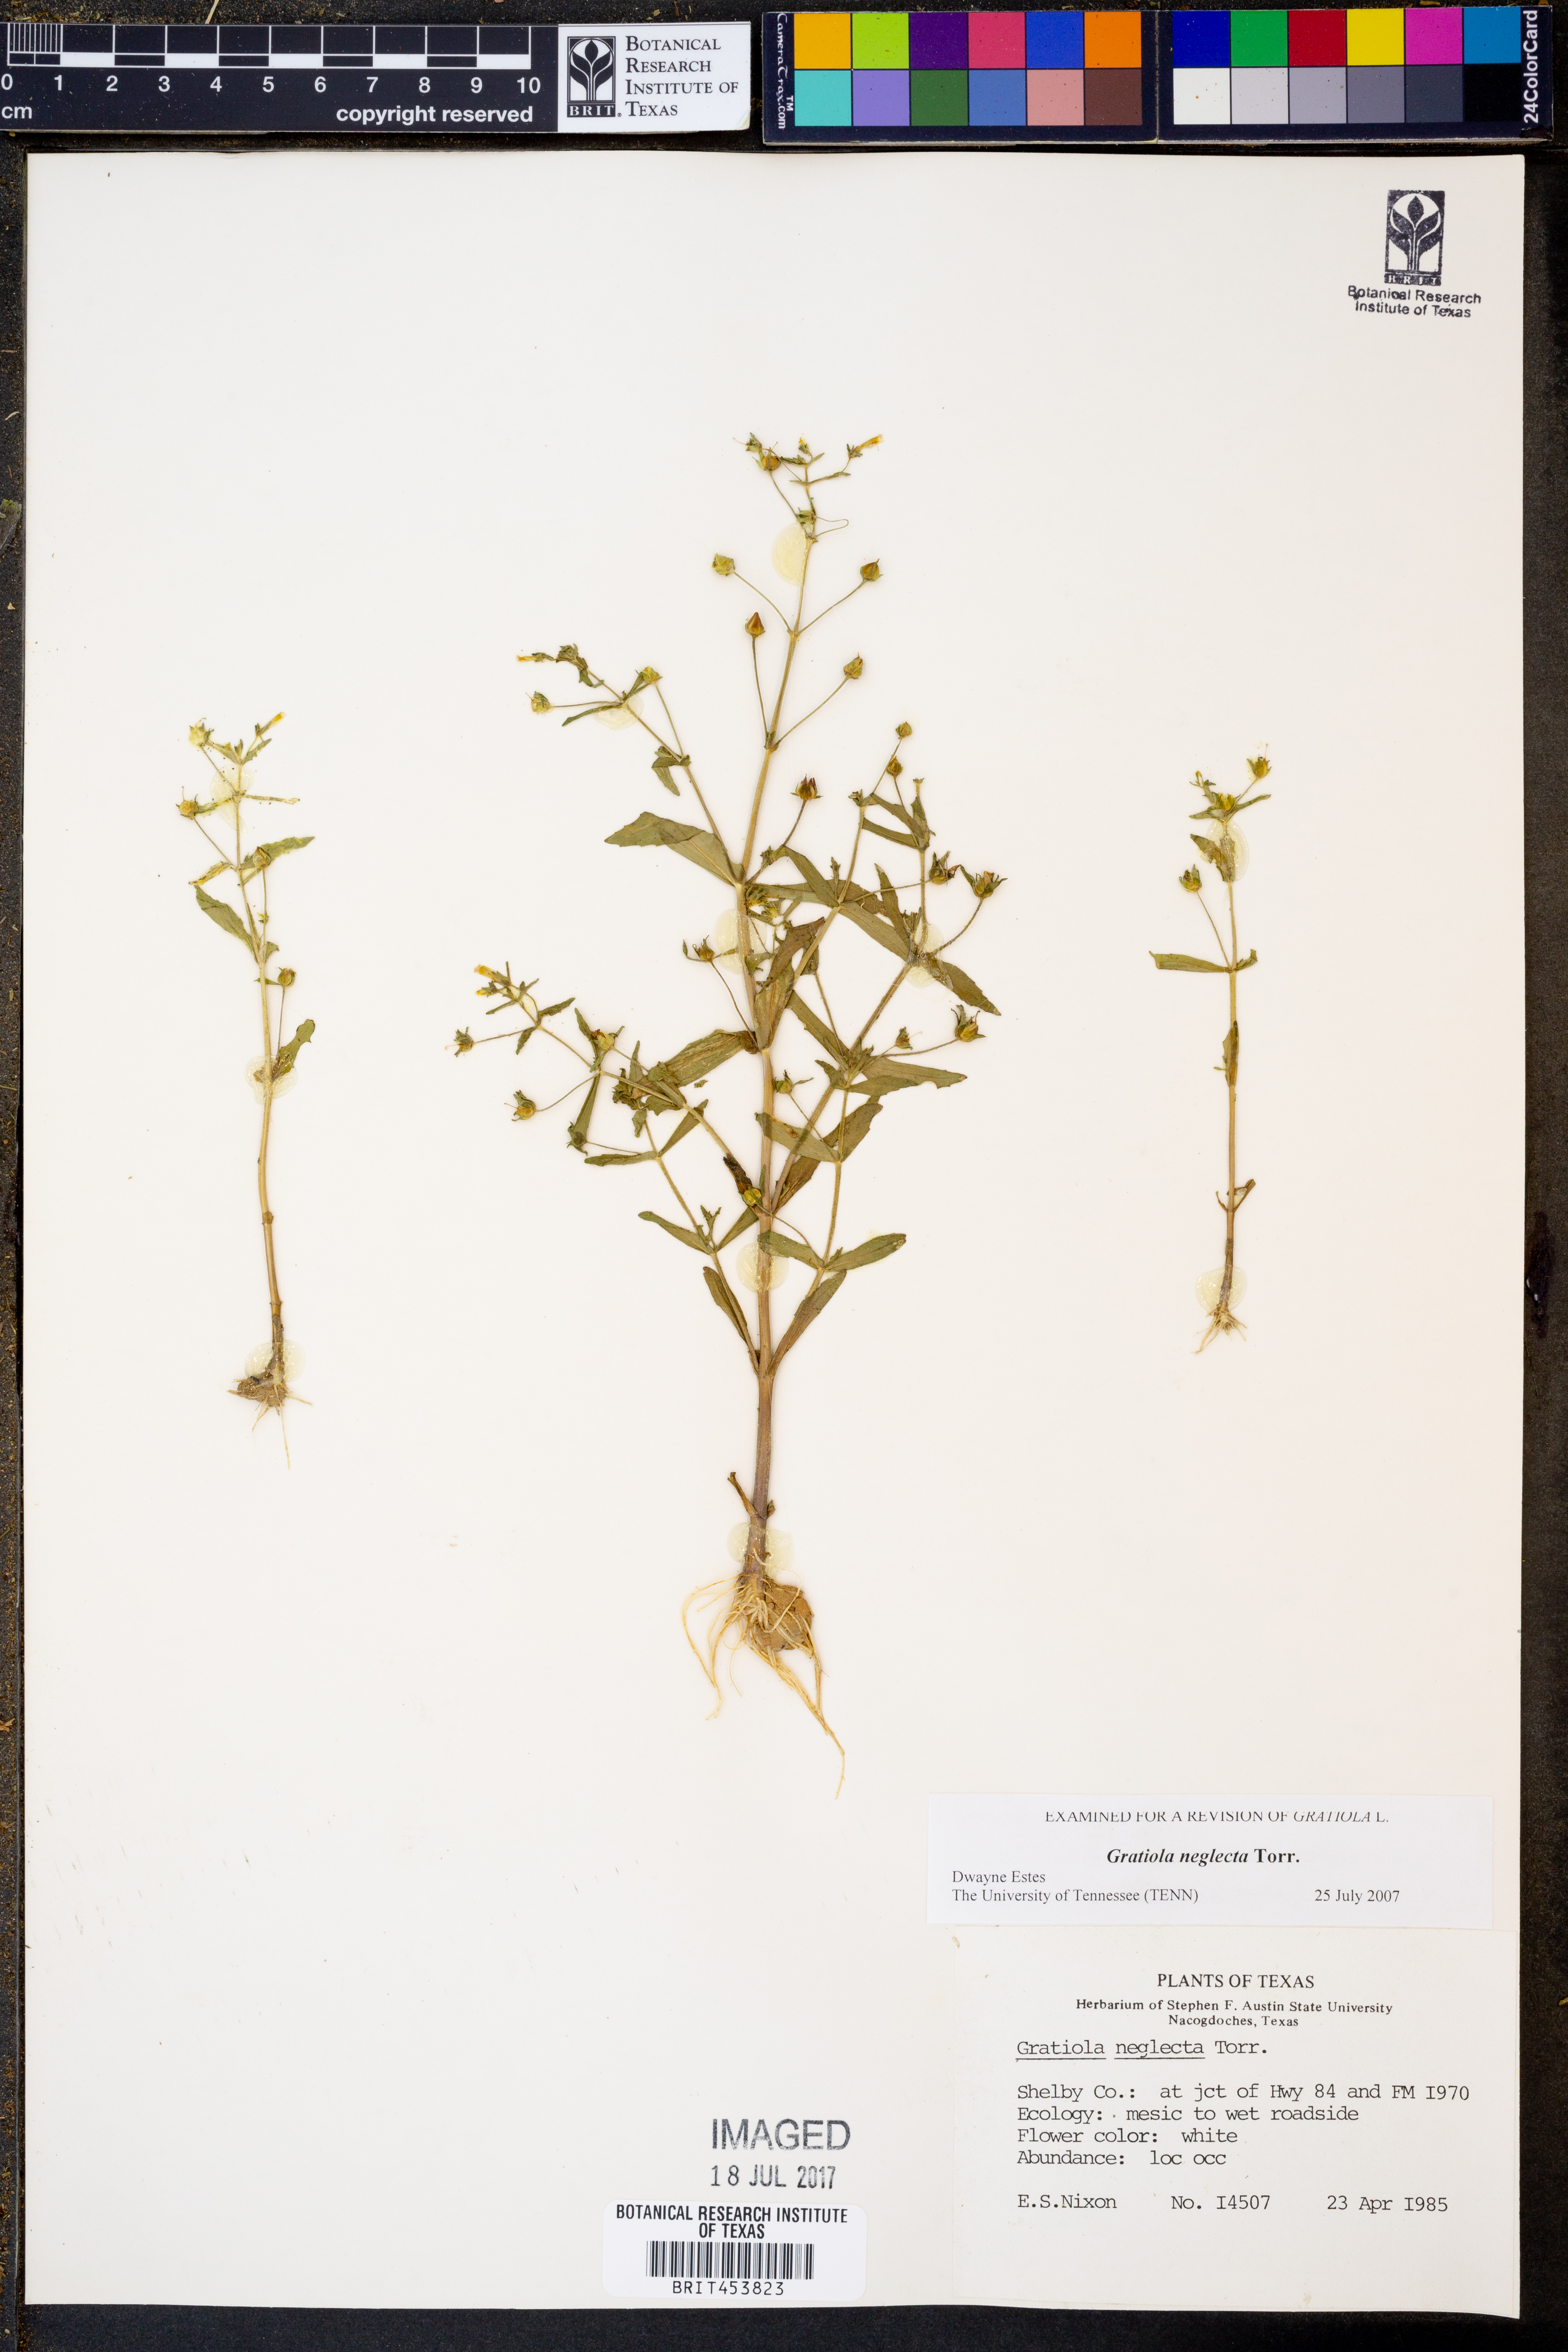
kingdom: Plantae
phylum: Tracheophyta
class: Magnoliopsida
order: Lamiales
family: Plantaginaceae
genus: Gratiola
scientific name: Gratiola neglecta
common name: American hedge-hyssop
